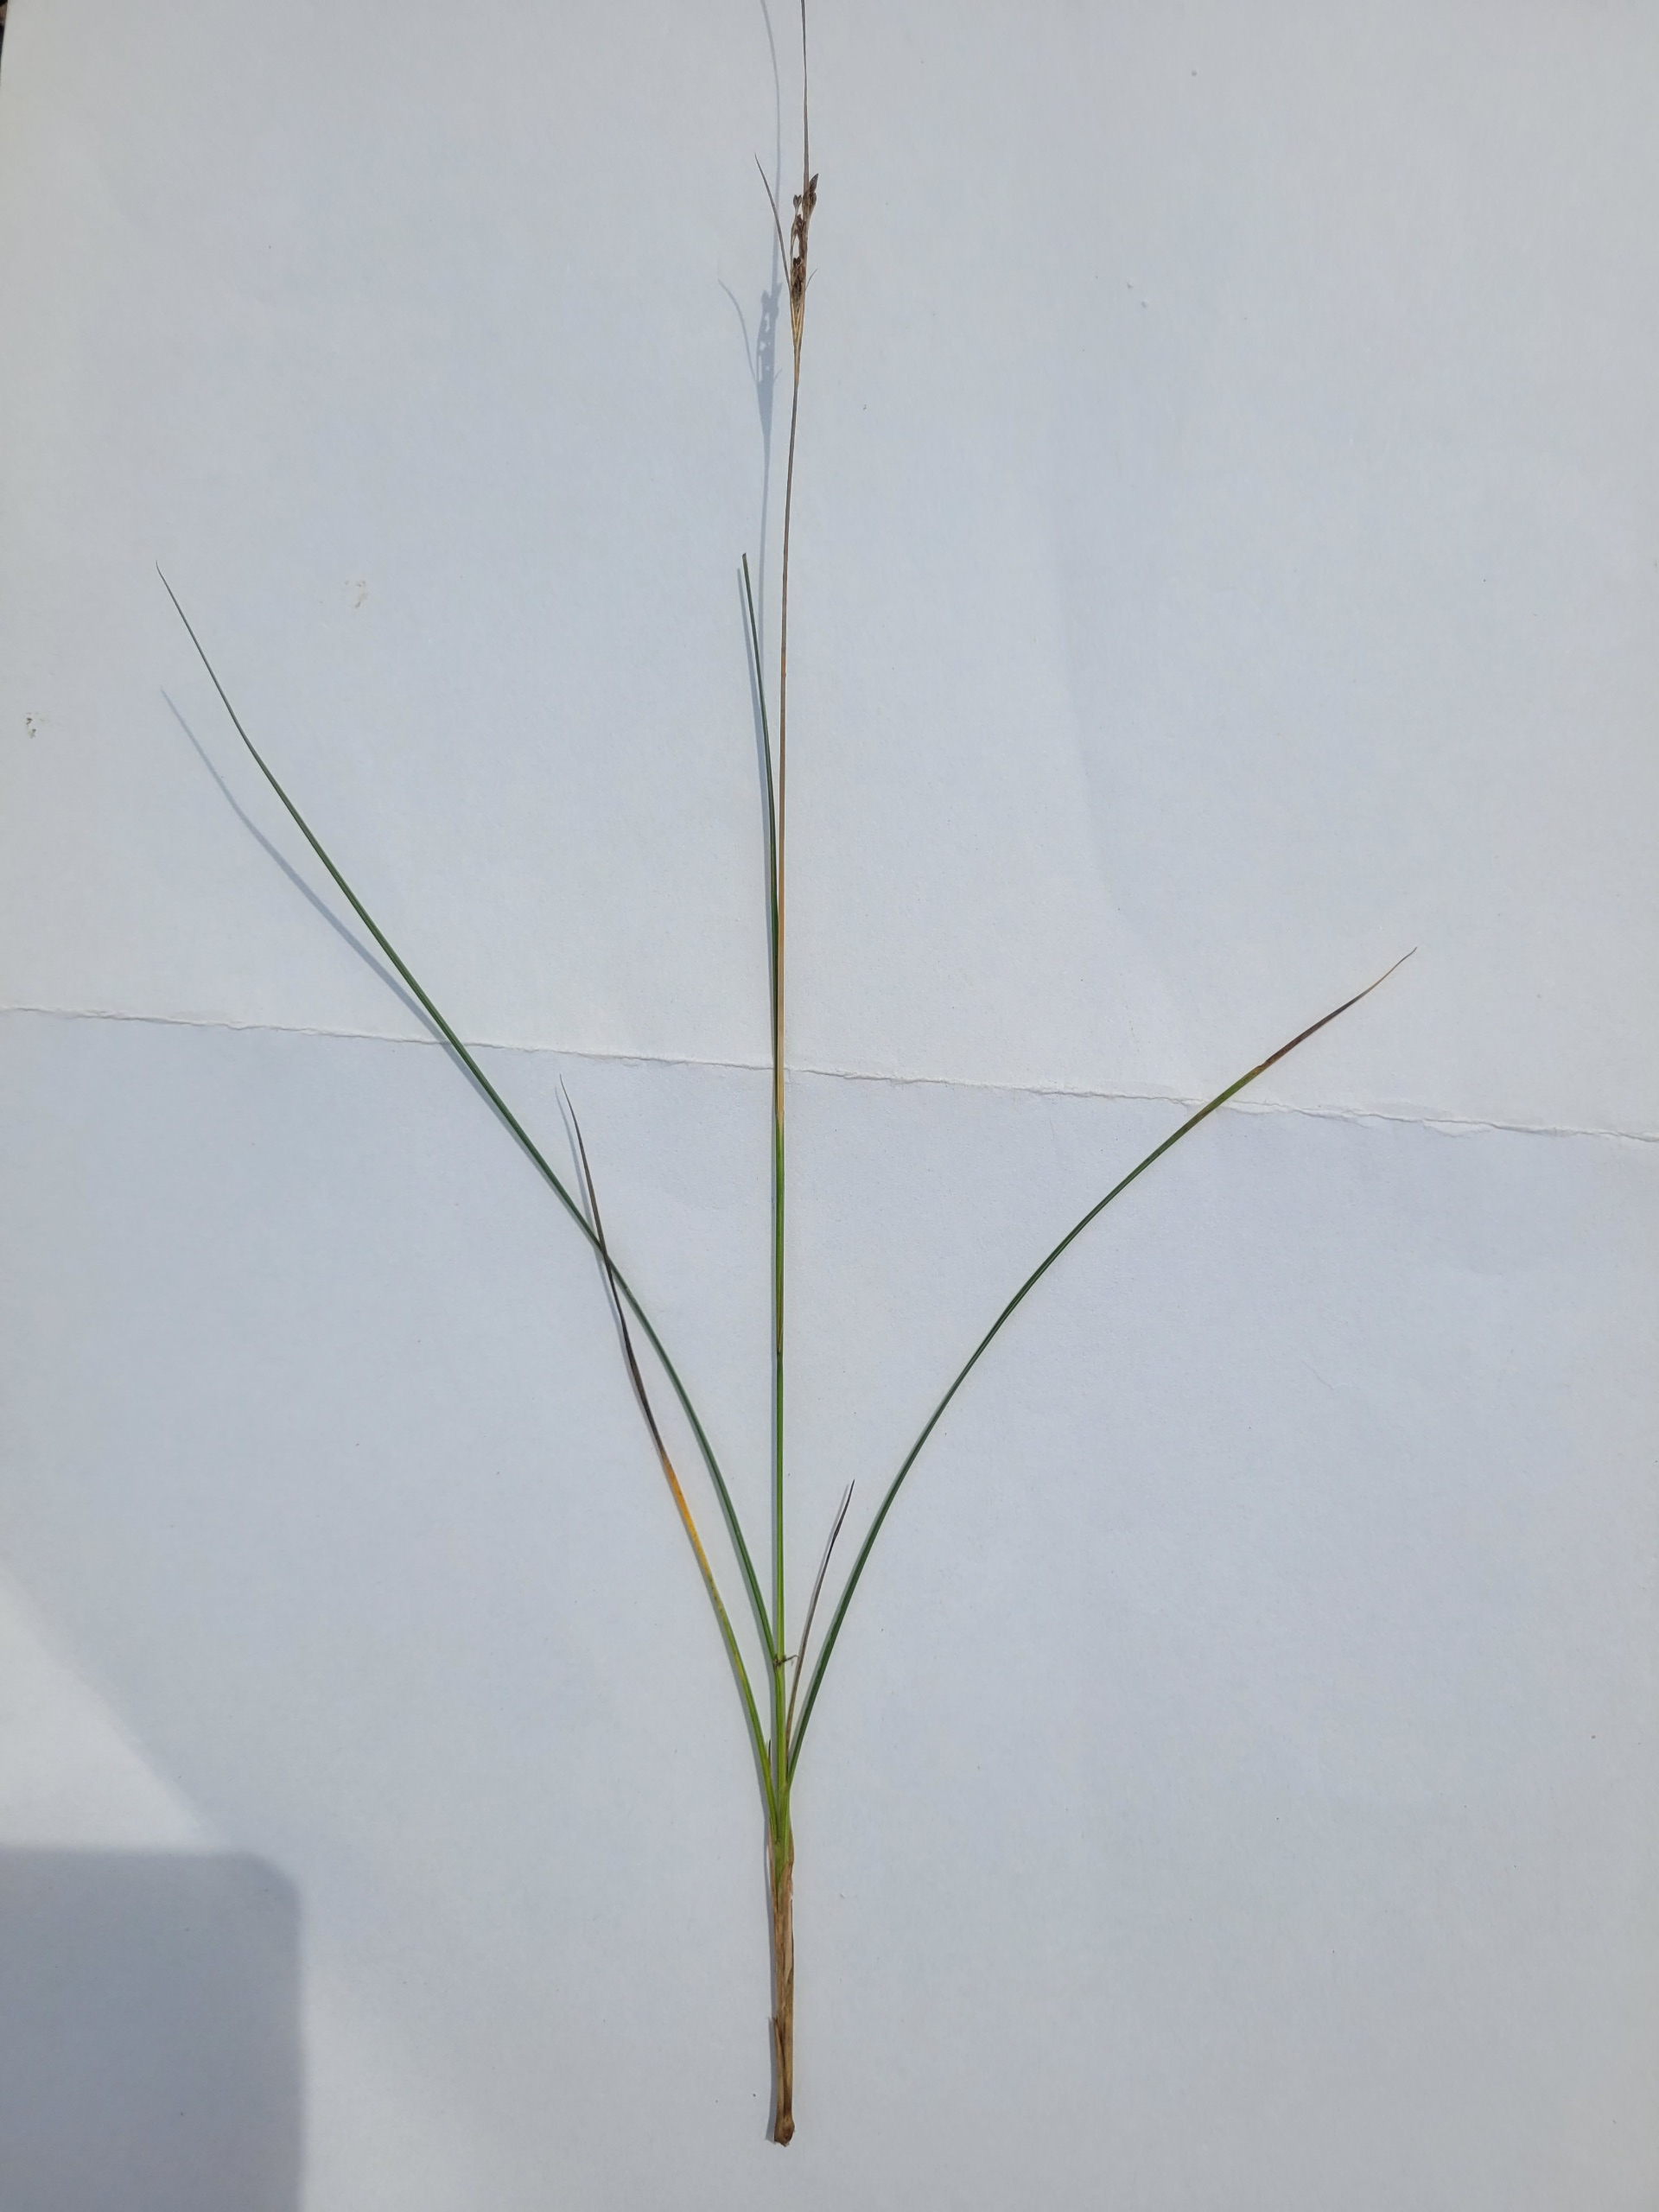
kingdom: Plantae
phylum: Tracheophyta
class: Liliopsida
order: Poales
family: Juncaceae
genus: Juncus
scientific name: Juncus gerardi
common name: Harril
